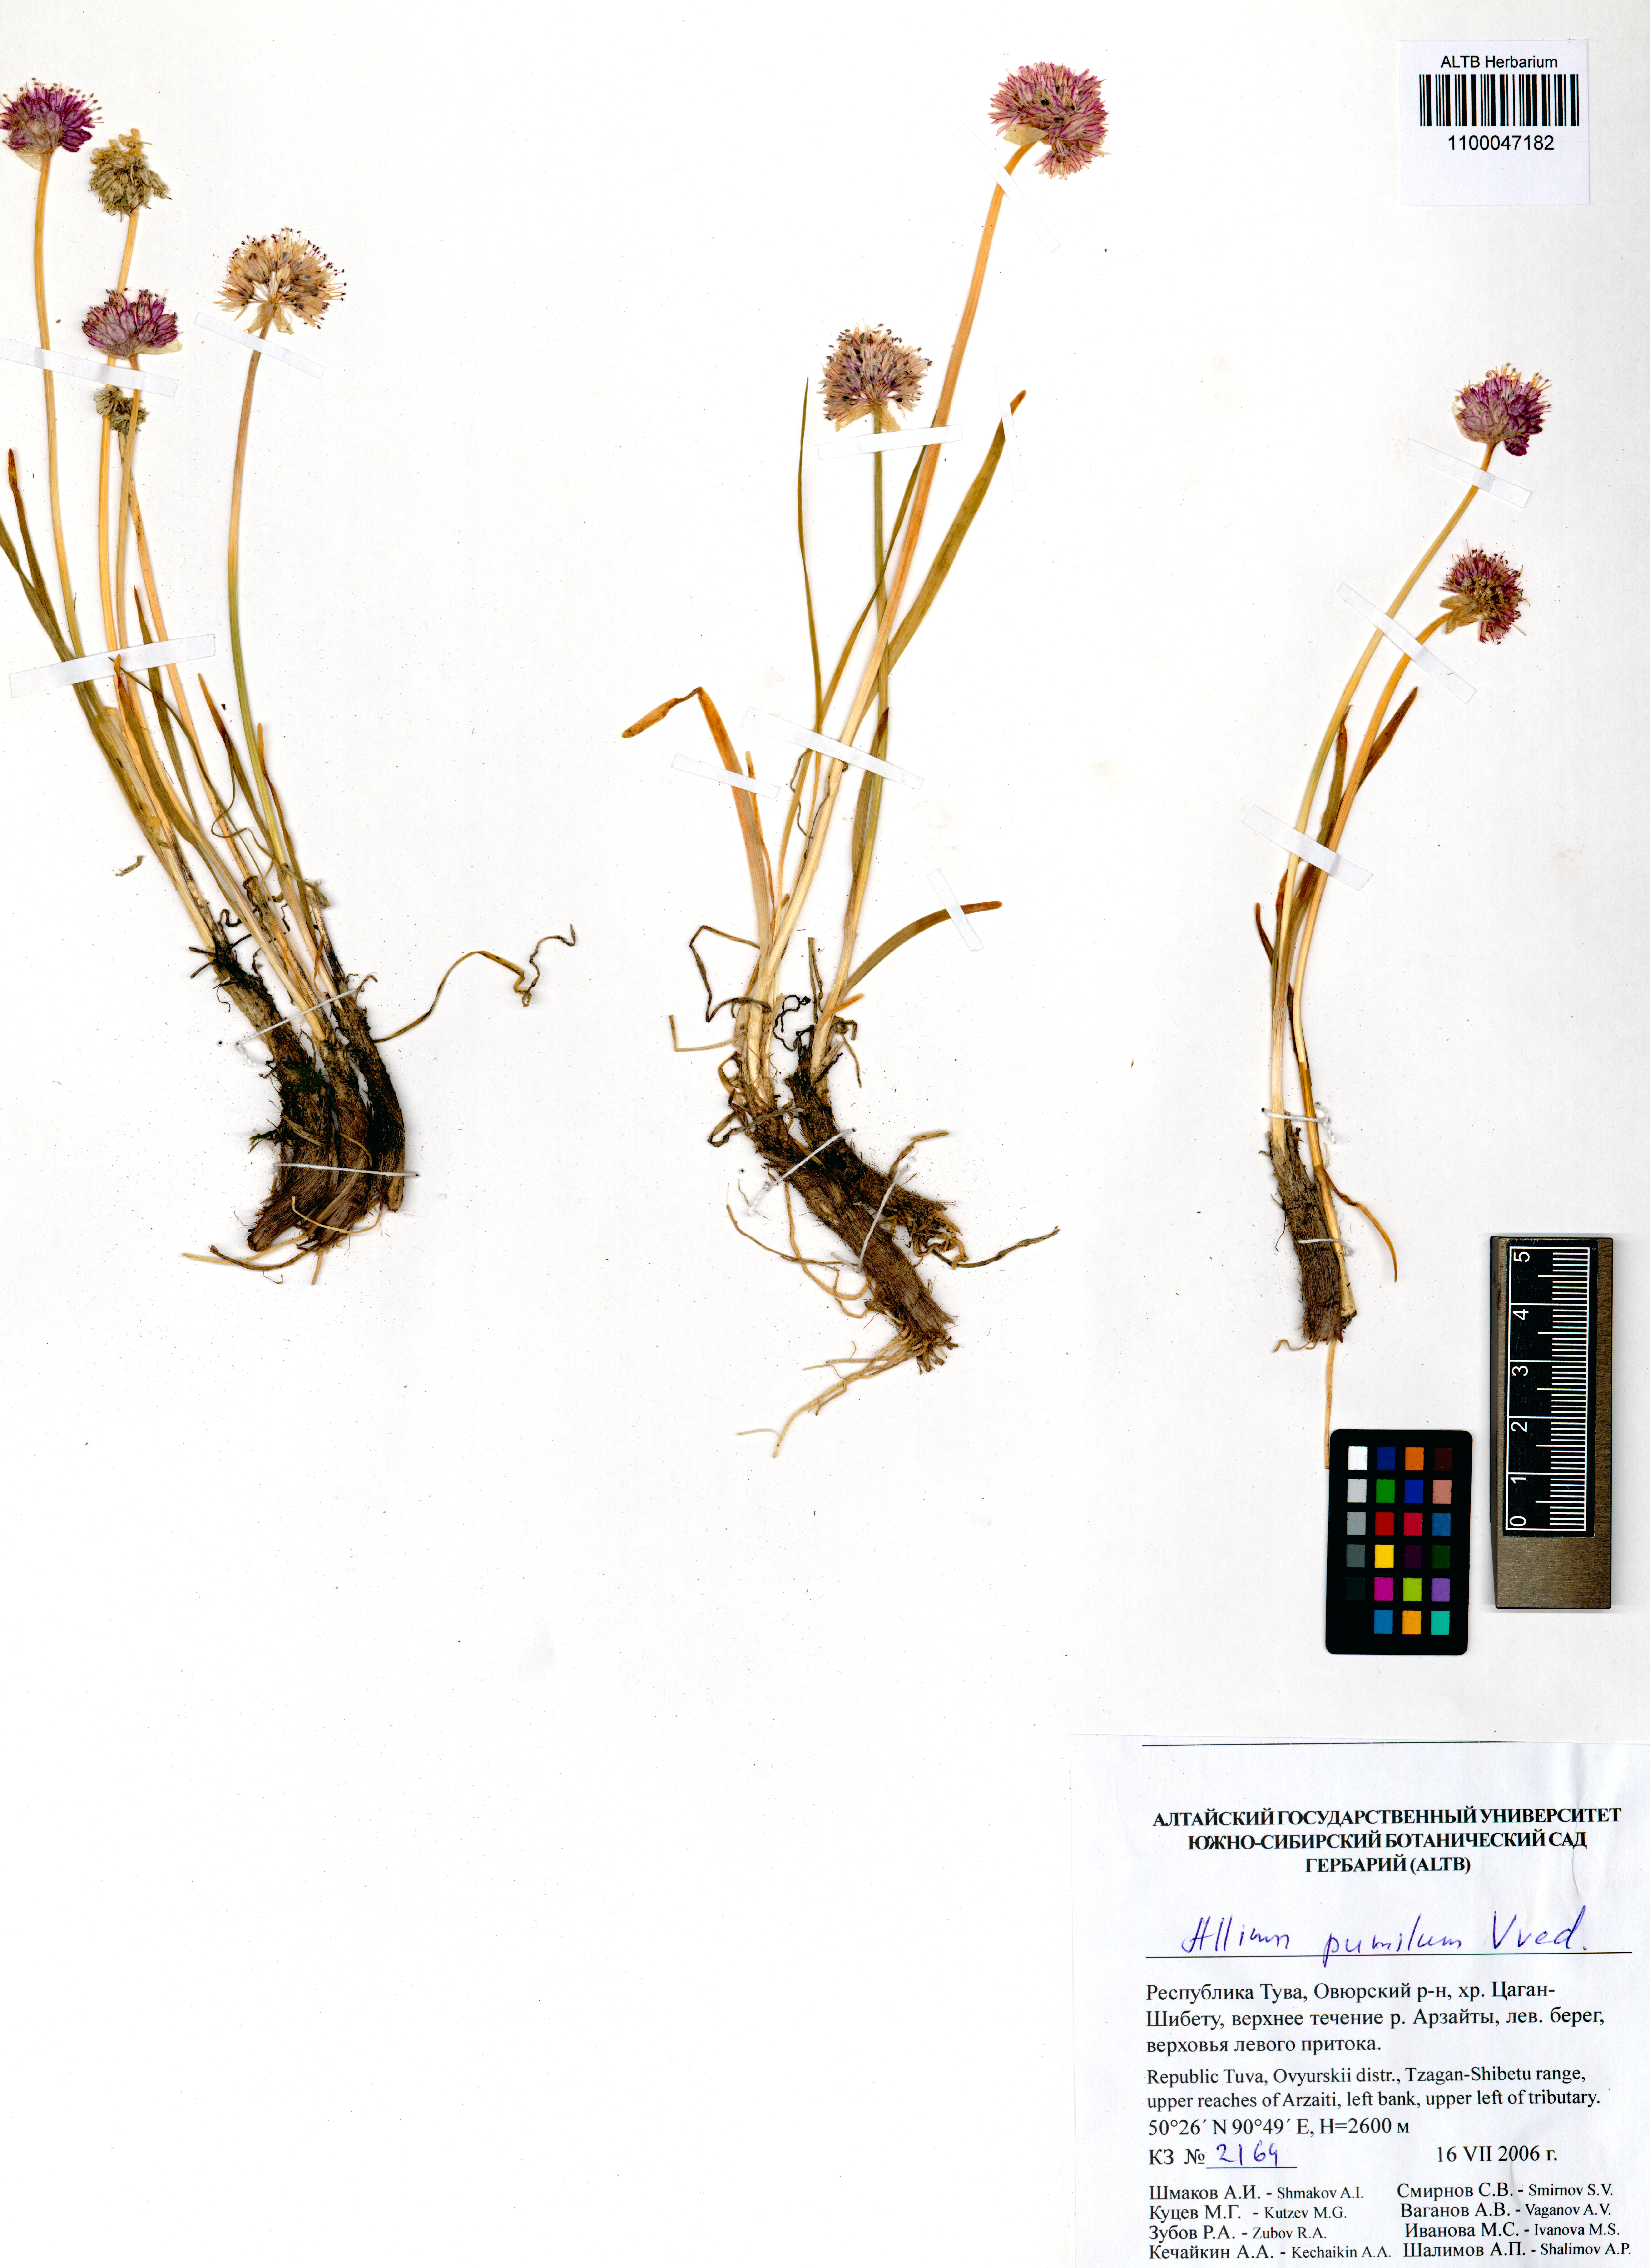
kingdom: Plantae
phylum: Tracheophyta
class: Liliopsida
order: Asparagales
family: Amaryllidaceae
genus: Allium
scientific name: Allium pumilum
